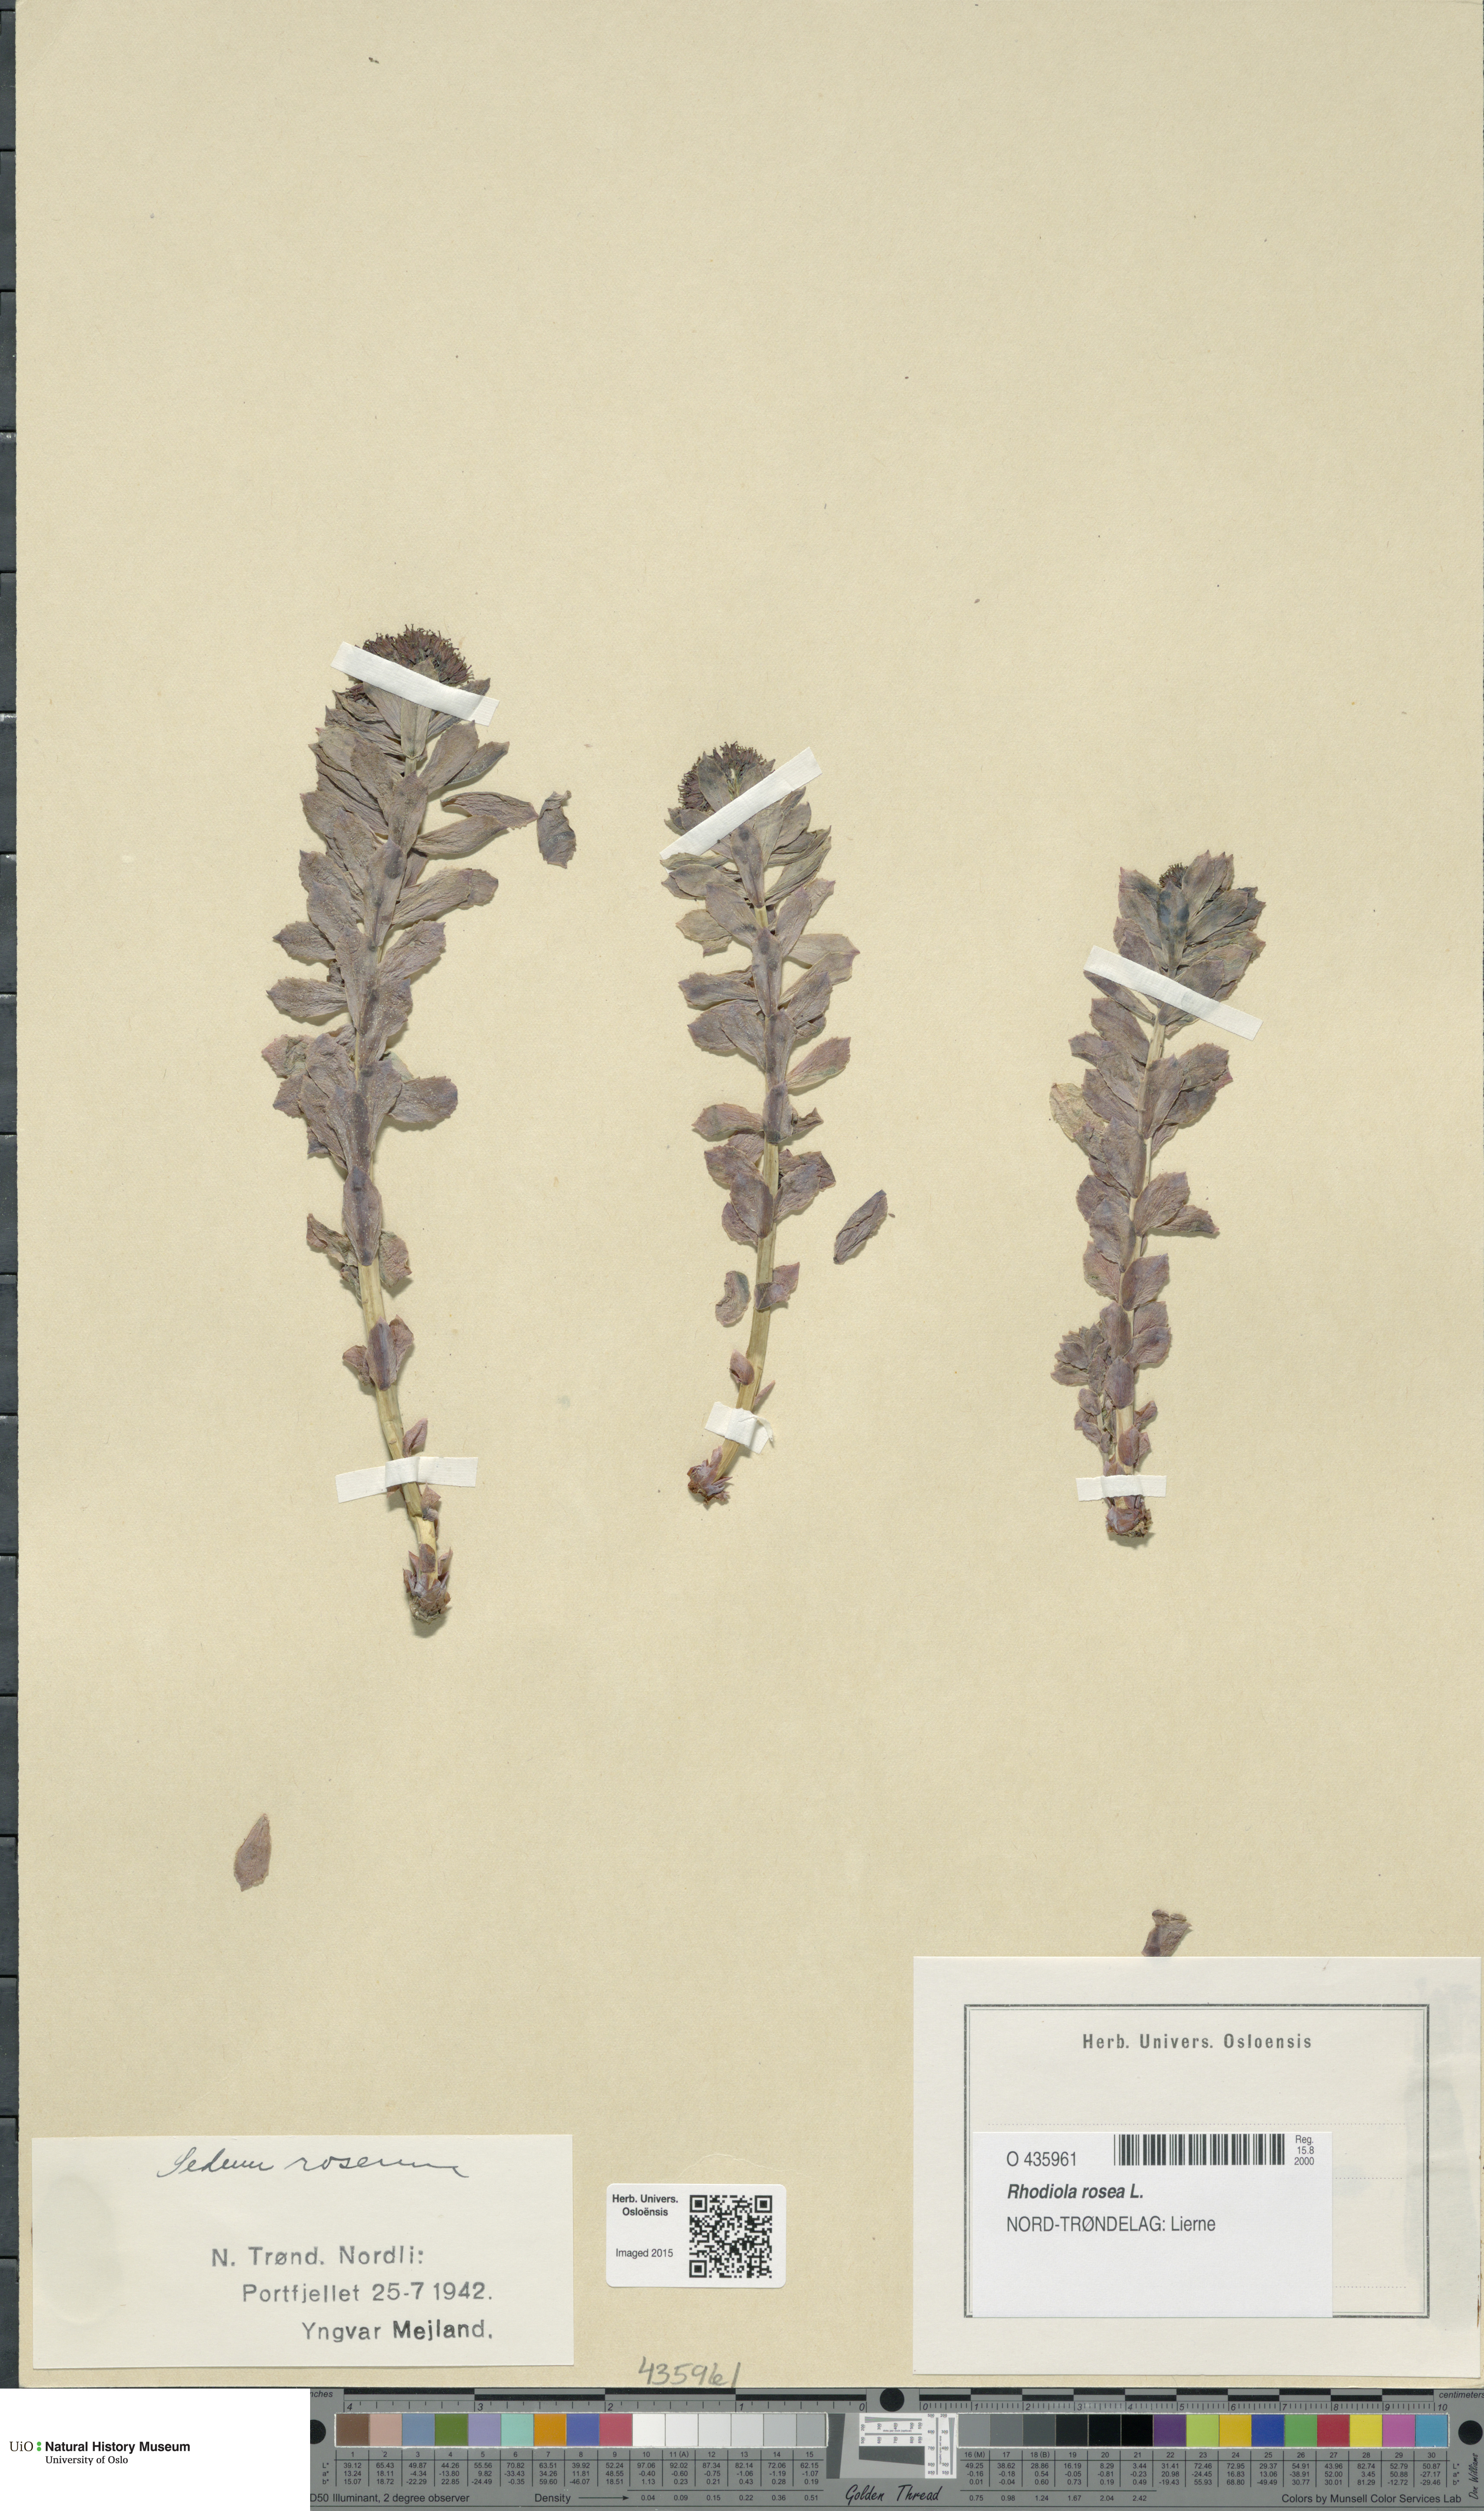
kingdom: Plantae
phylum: Tracheophyta
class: Magnoliopsida
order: Saxifragales
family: Crassulaceae
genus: Rhodiola
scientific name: Rhodiola rosea
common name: Roseroot
